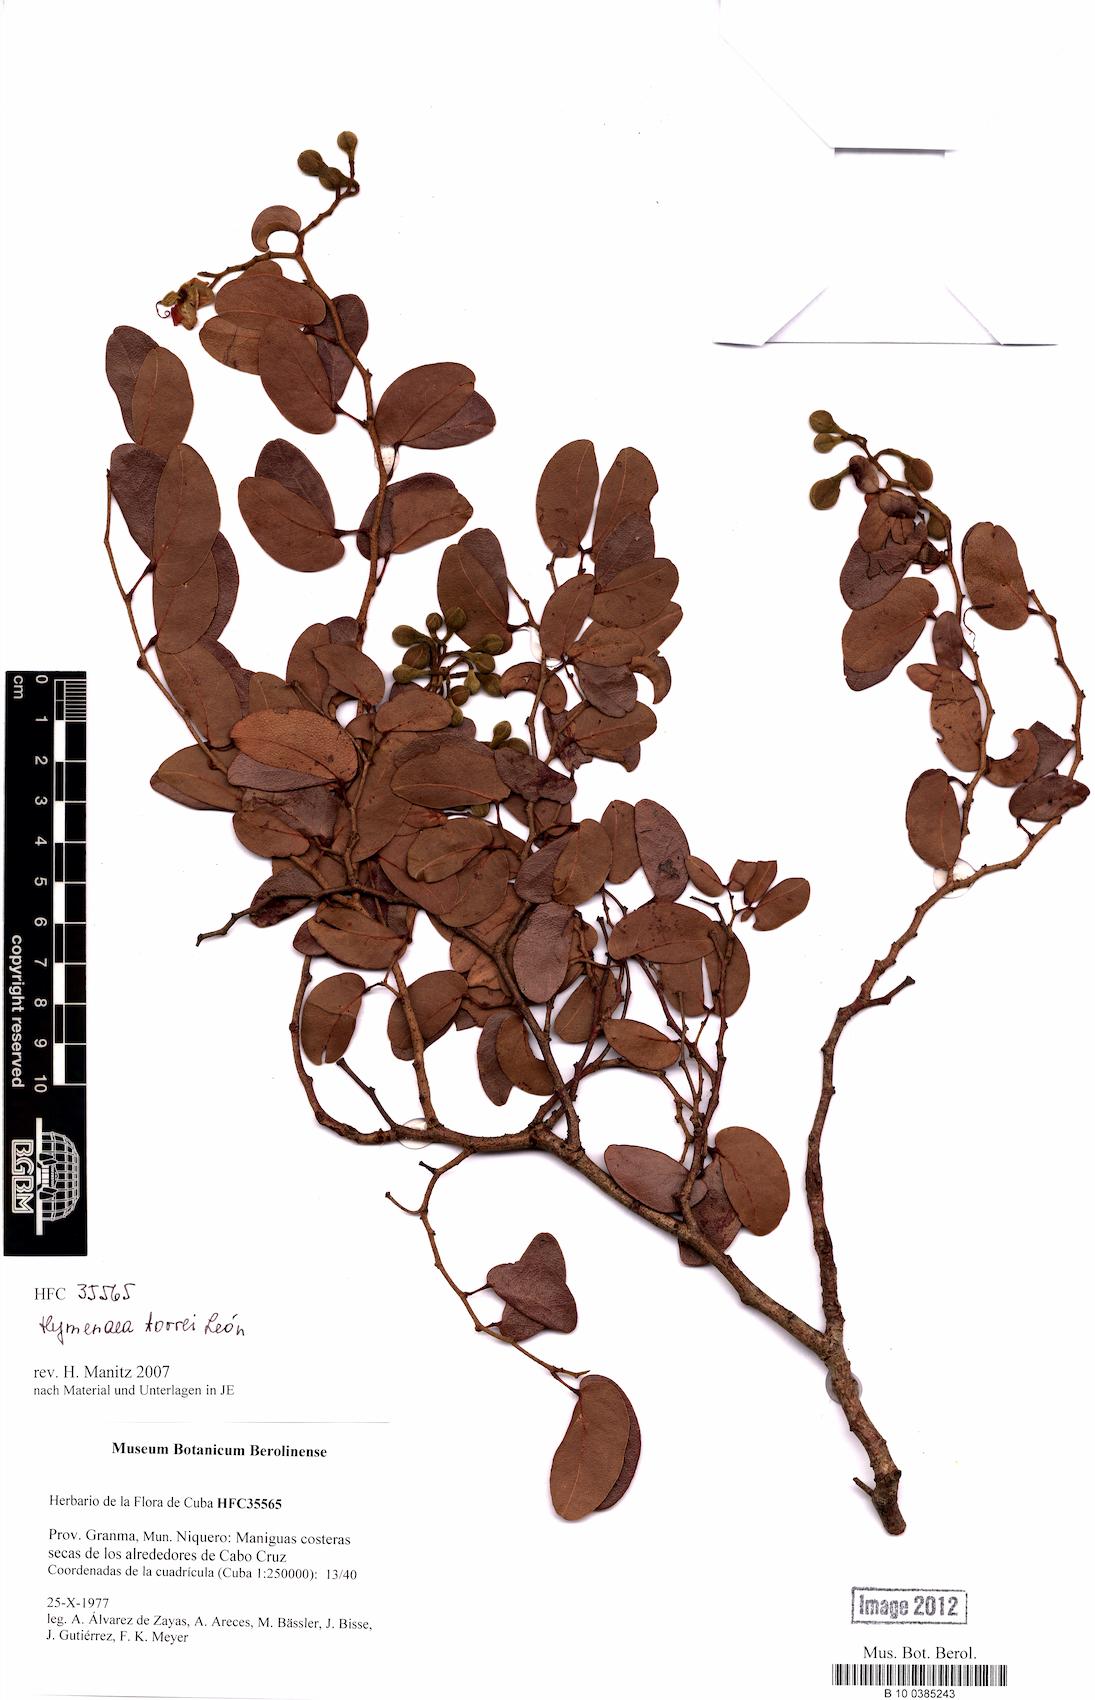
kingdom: Plantae
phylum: Tracheophyta
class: Magnoliopsida
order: Fabales
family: Fabaceae
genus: Hymenaea
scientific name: Hymenaea torrei
